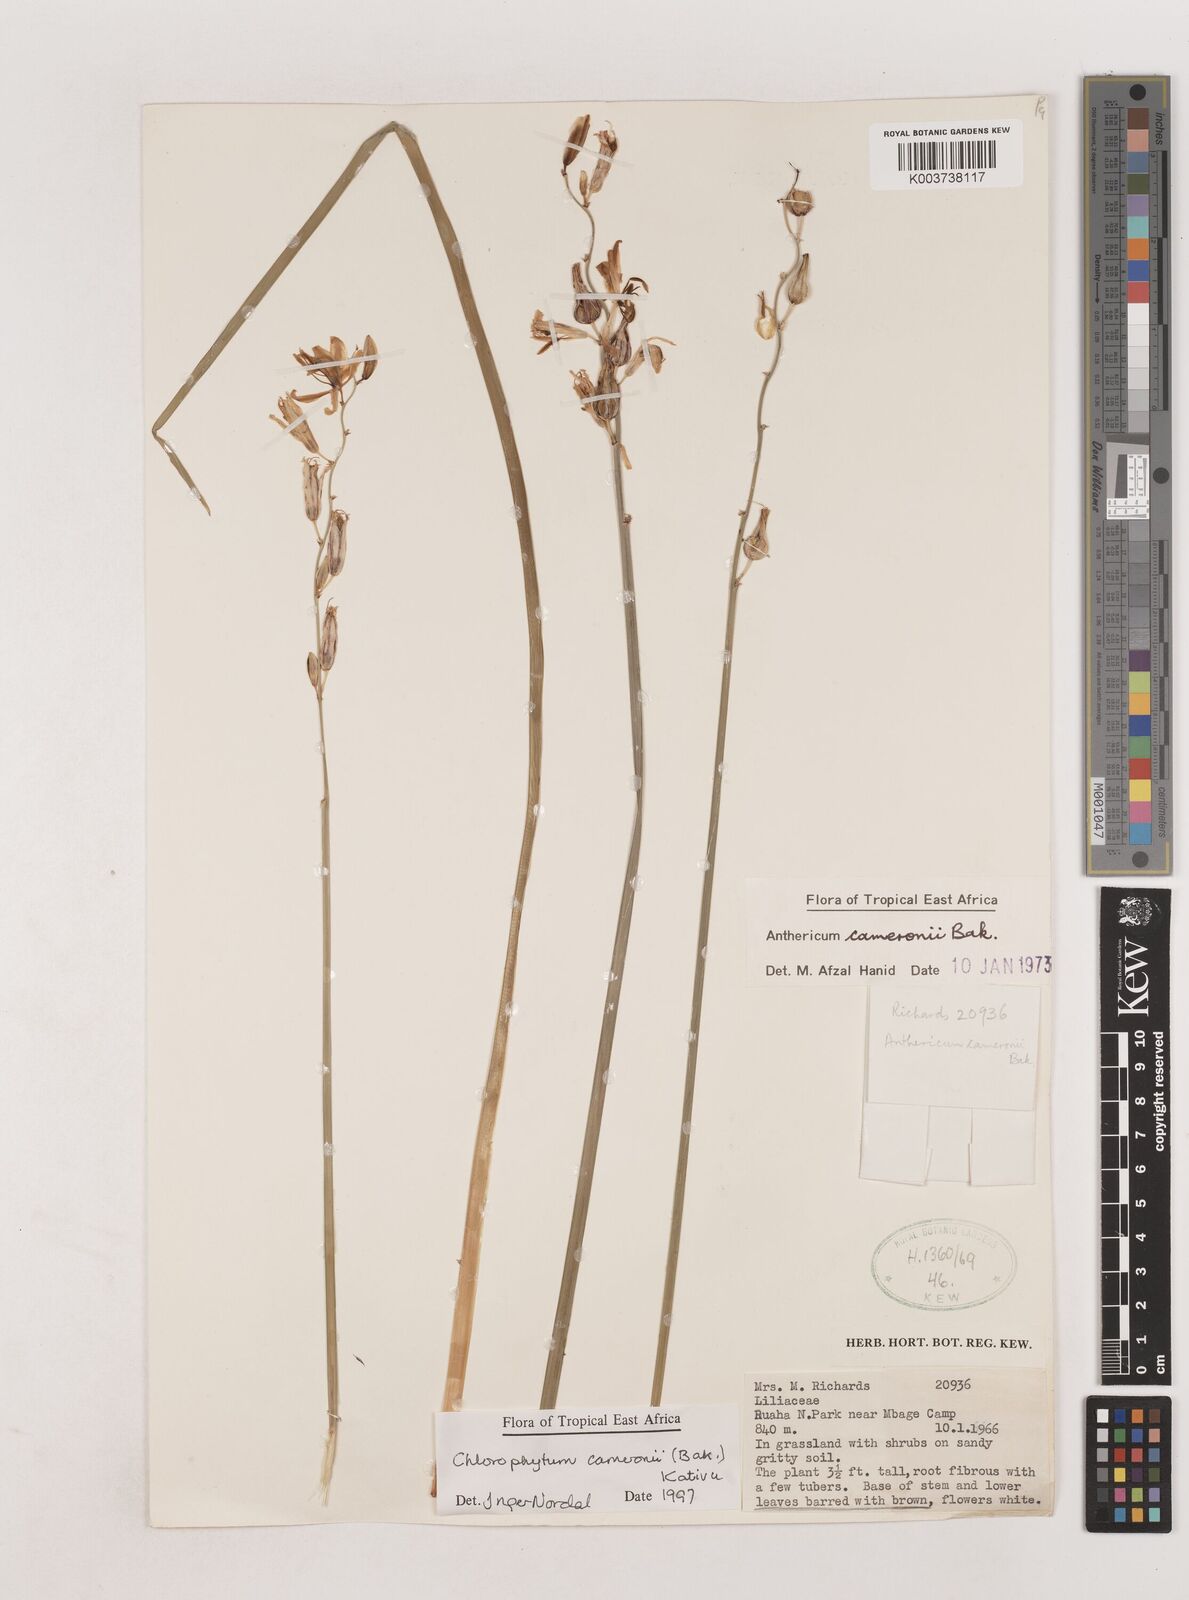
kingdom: Plantae
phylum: Tracheophyta
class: Liliopsida
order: Asparagales
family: Asparagaceae
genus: Chlorophytum
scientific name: Chlorophytum cameronii
